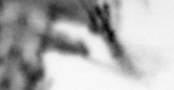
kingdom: Animalia
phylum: Annelida
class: Polychaeta
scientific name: Polychaeta
